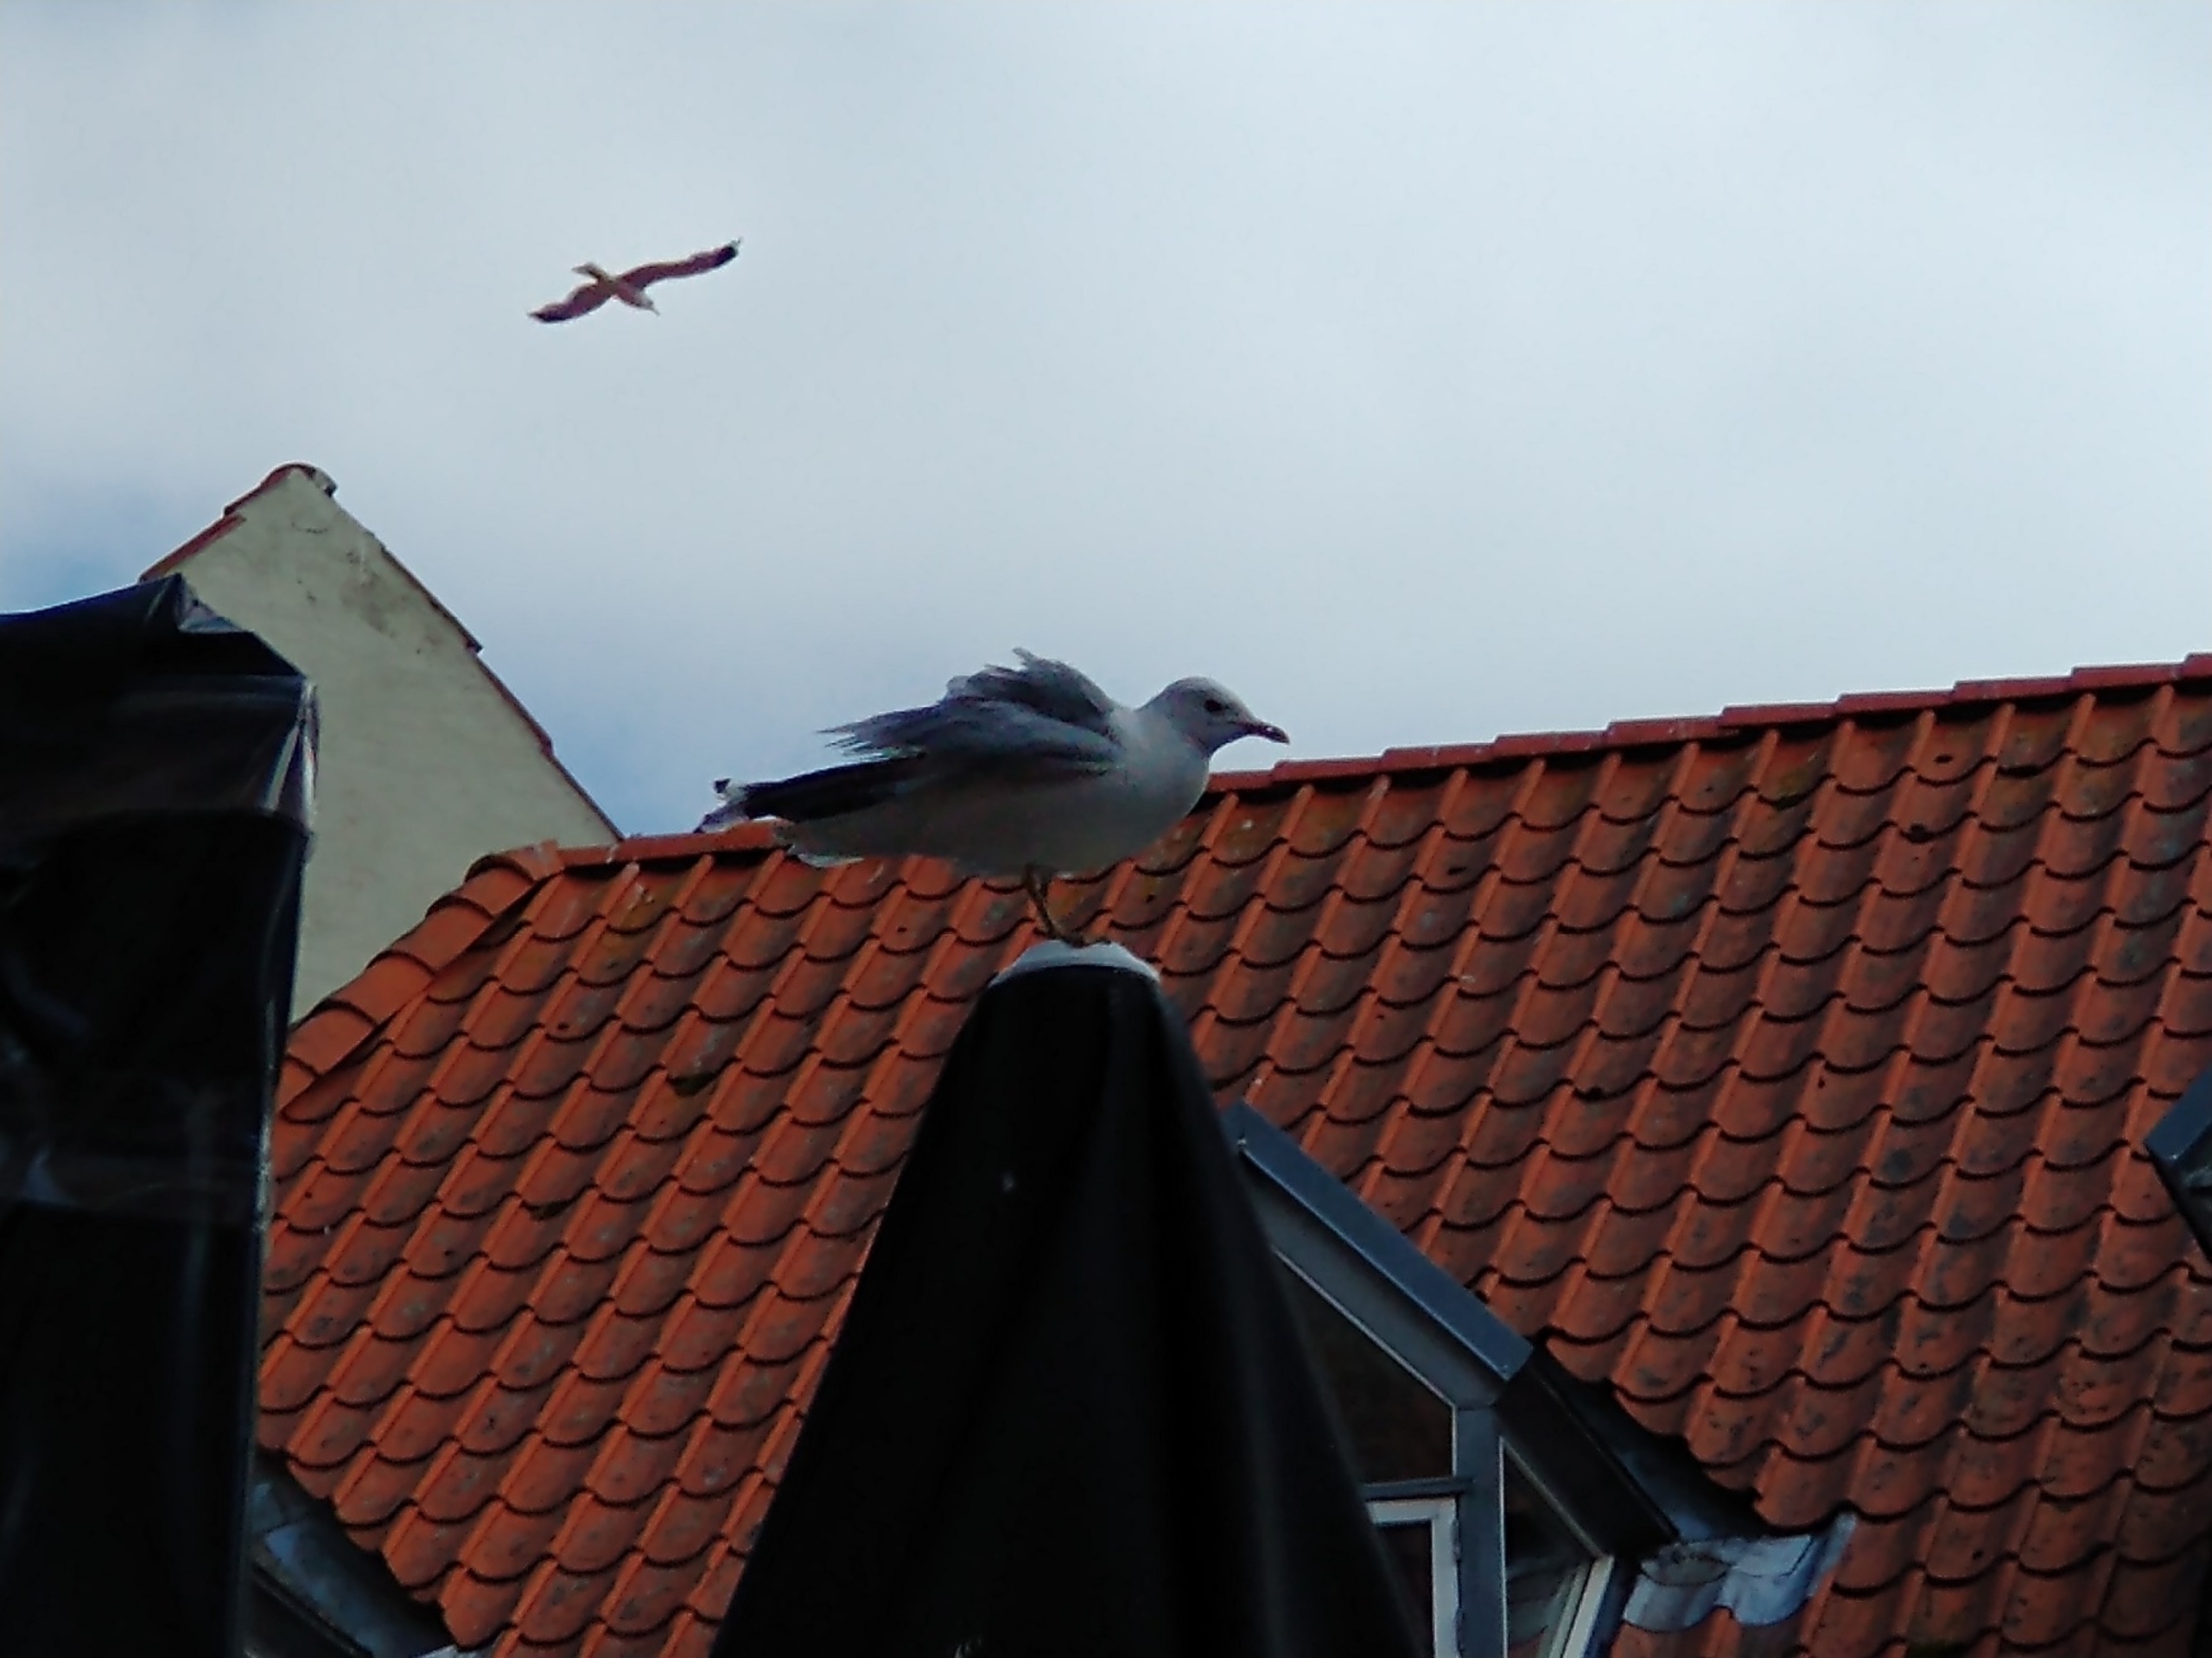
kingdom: Animalia
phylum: Chordata
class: Aves
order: Charadriiformes
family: Laridae
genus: Larus
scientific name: Larus canus
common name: Stormmåge
